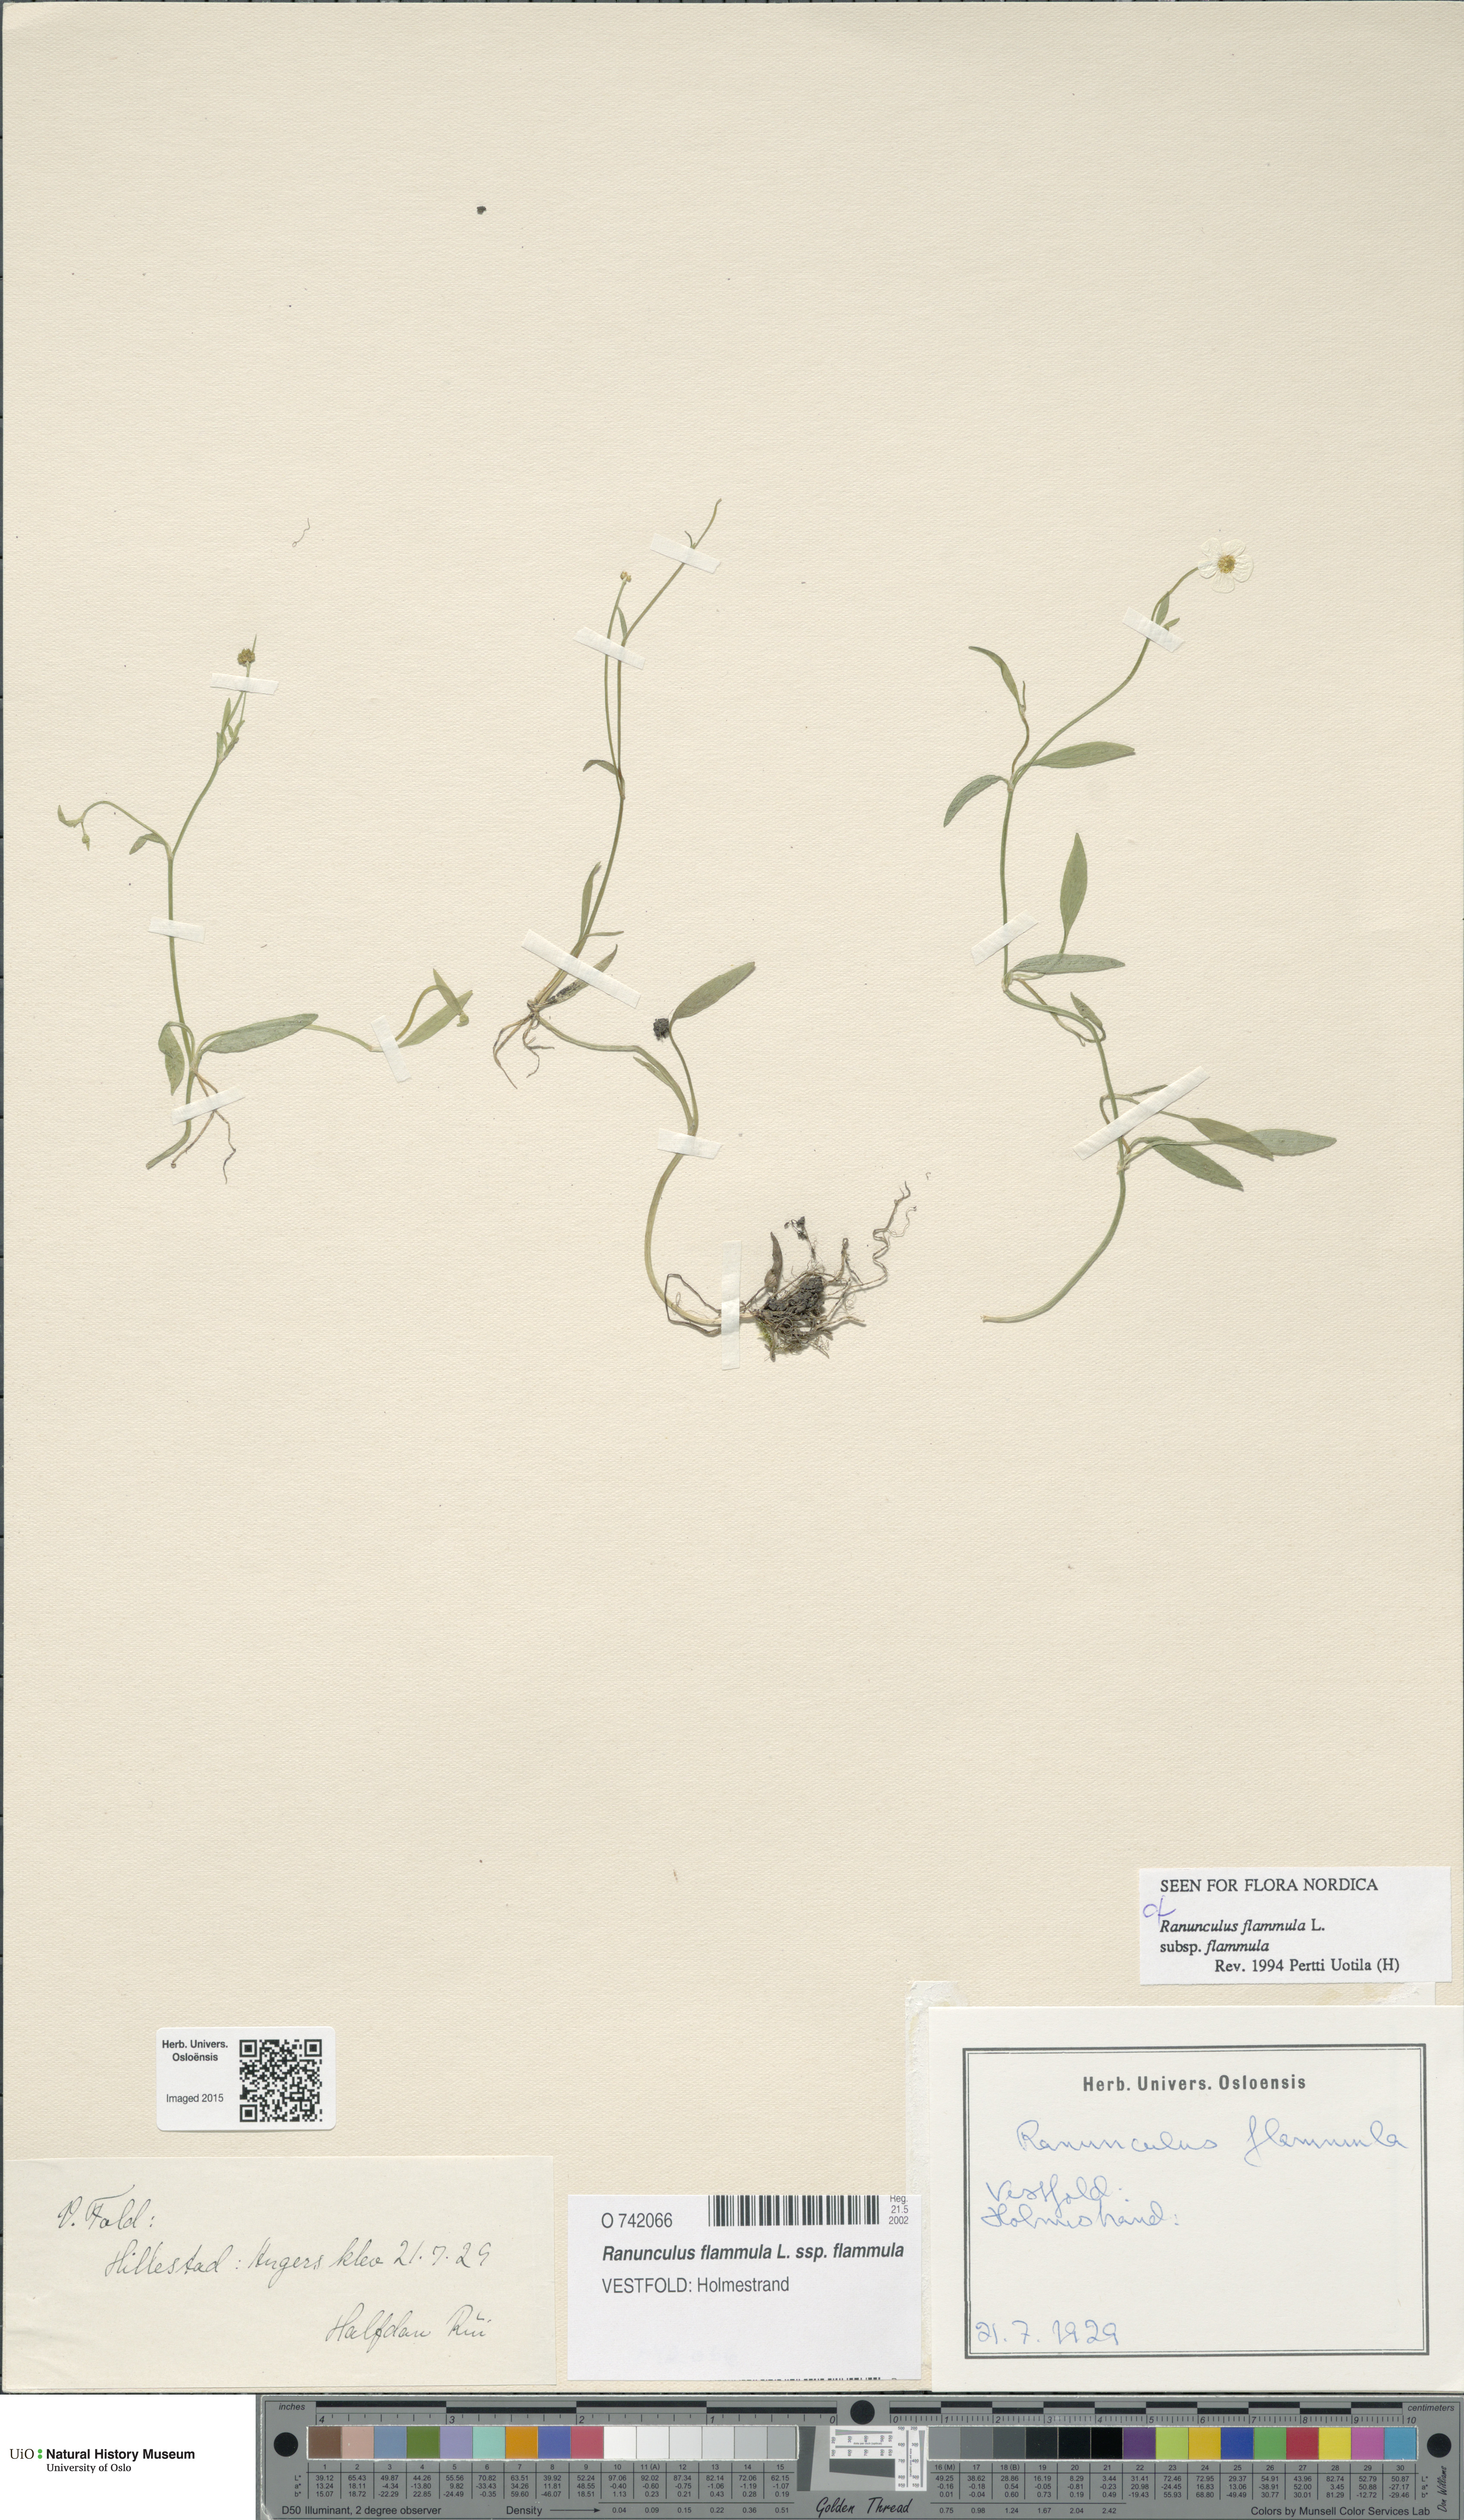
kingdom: Plantae
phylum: Tracheophyta
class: Magnoliopsida
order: Ranunculales
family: Ranunculaceae
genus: Ranunculus
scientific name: Ranunculus flammula
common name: Lesser spearwort
